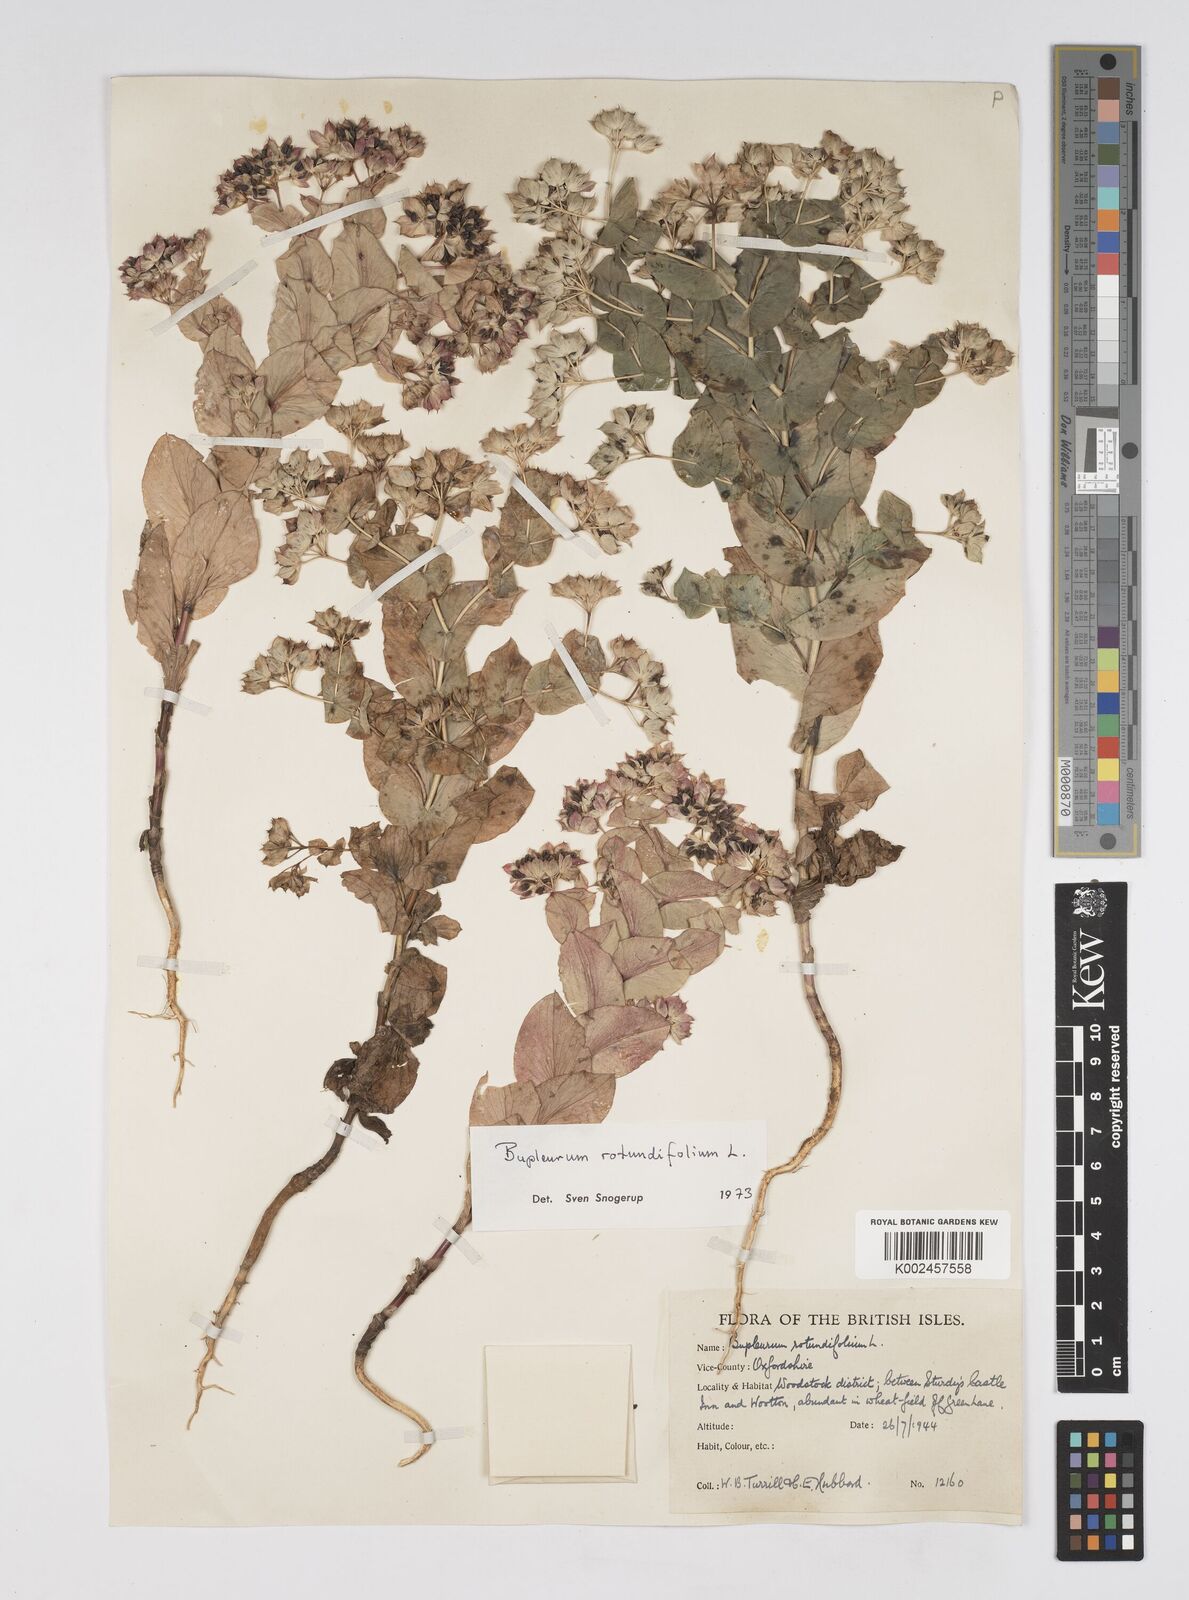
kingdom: Plantae
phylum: Tracheophyta
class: Magnoliopsida
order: Apiales
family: Apiaceae
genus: Bupleurum
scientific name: Bupleurum rotundifolium
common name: Thorow-wax
